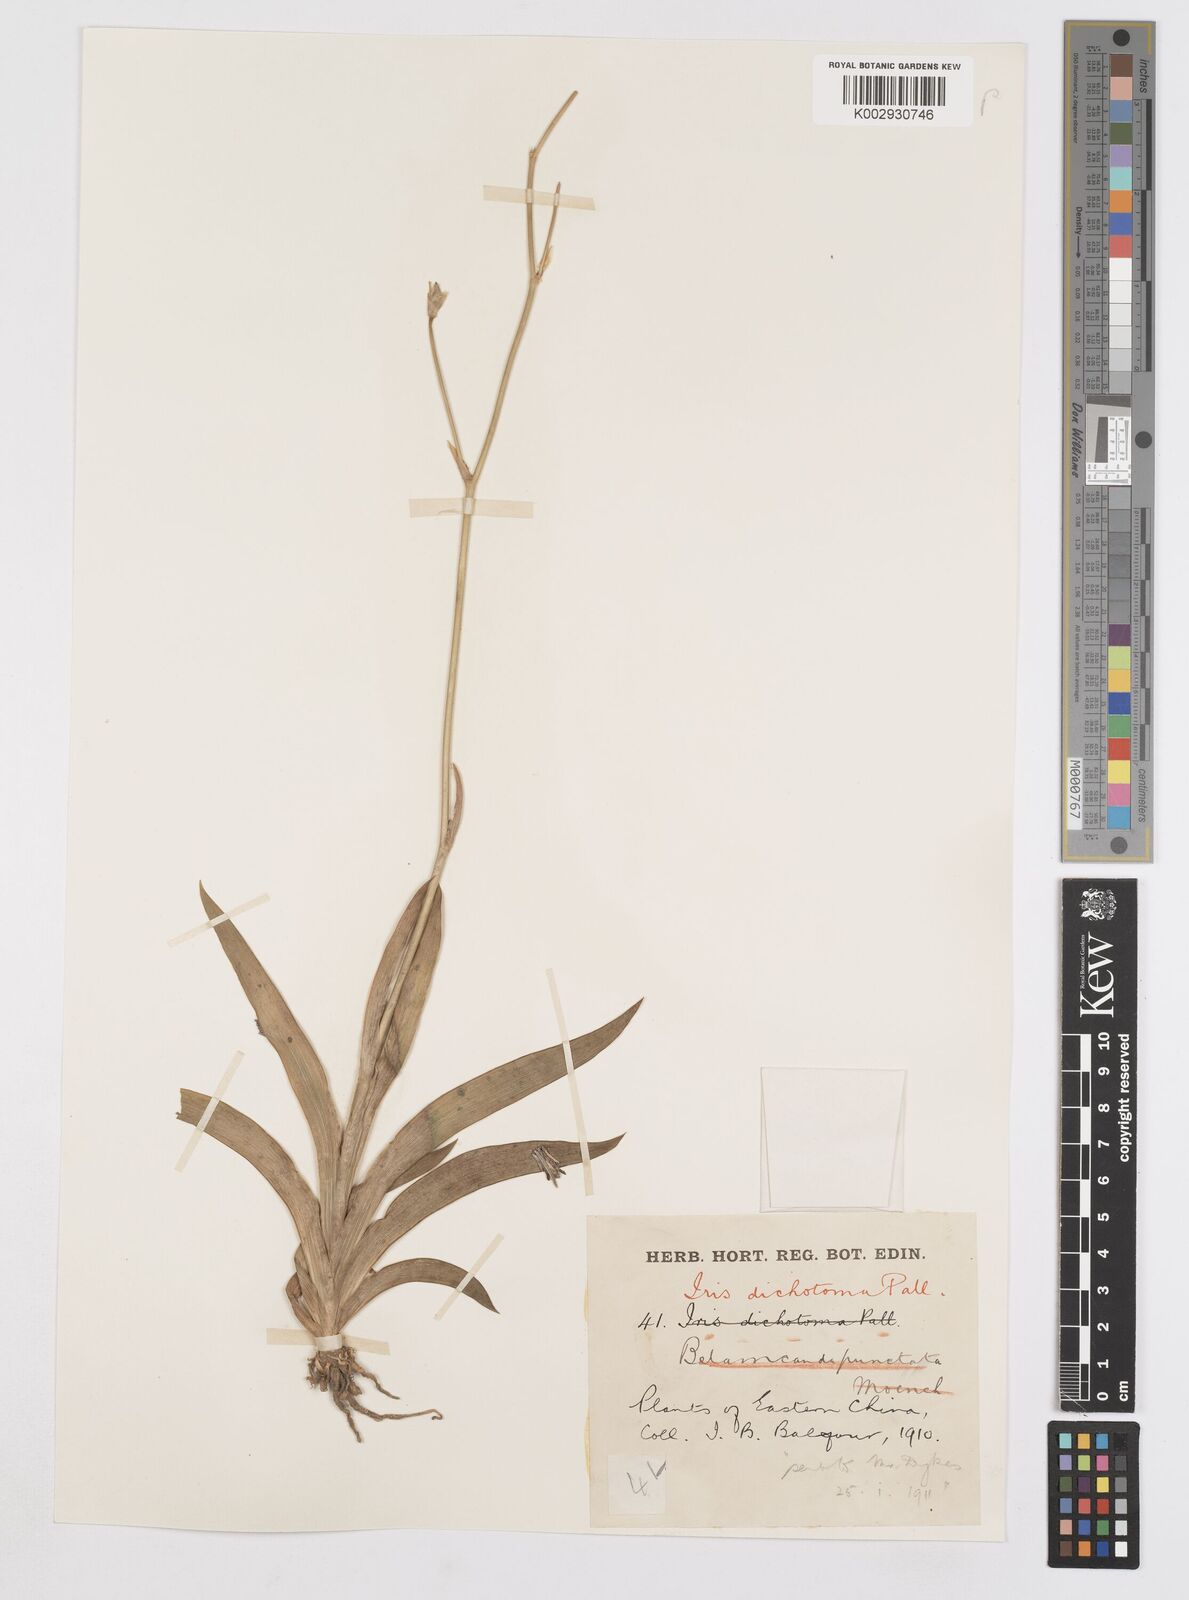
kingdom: Plantae
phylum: Tracheophyta
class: Liliopsida
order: Asparagales
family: Iridaceae
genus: Iris
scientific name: Iris dichotoma
